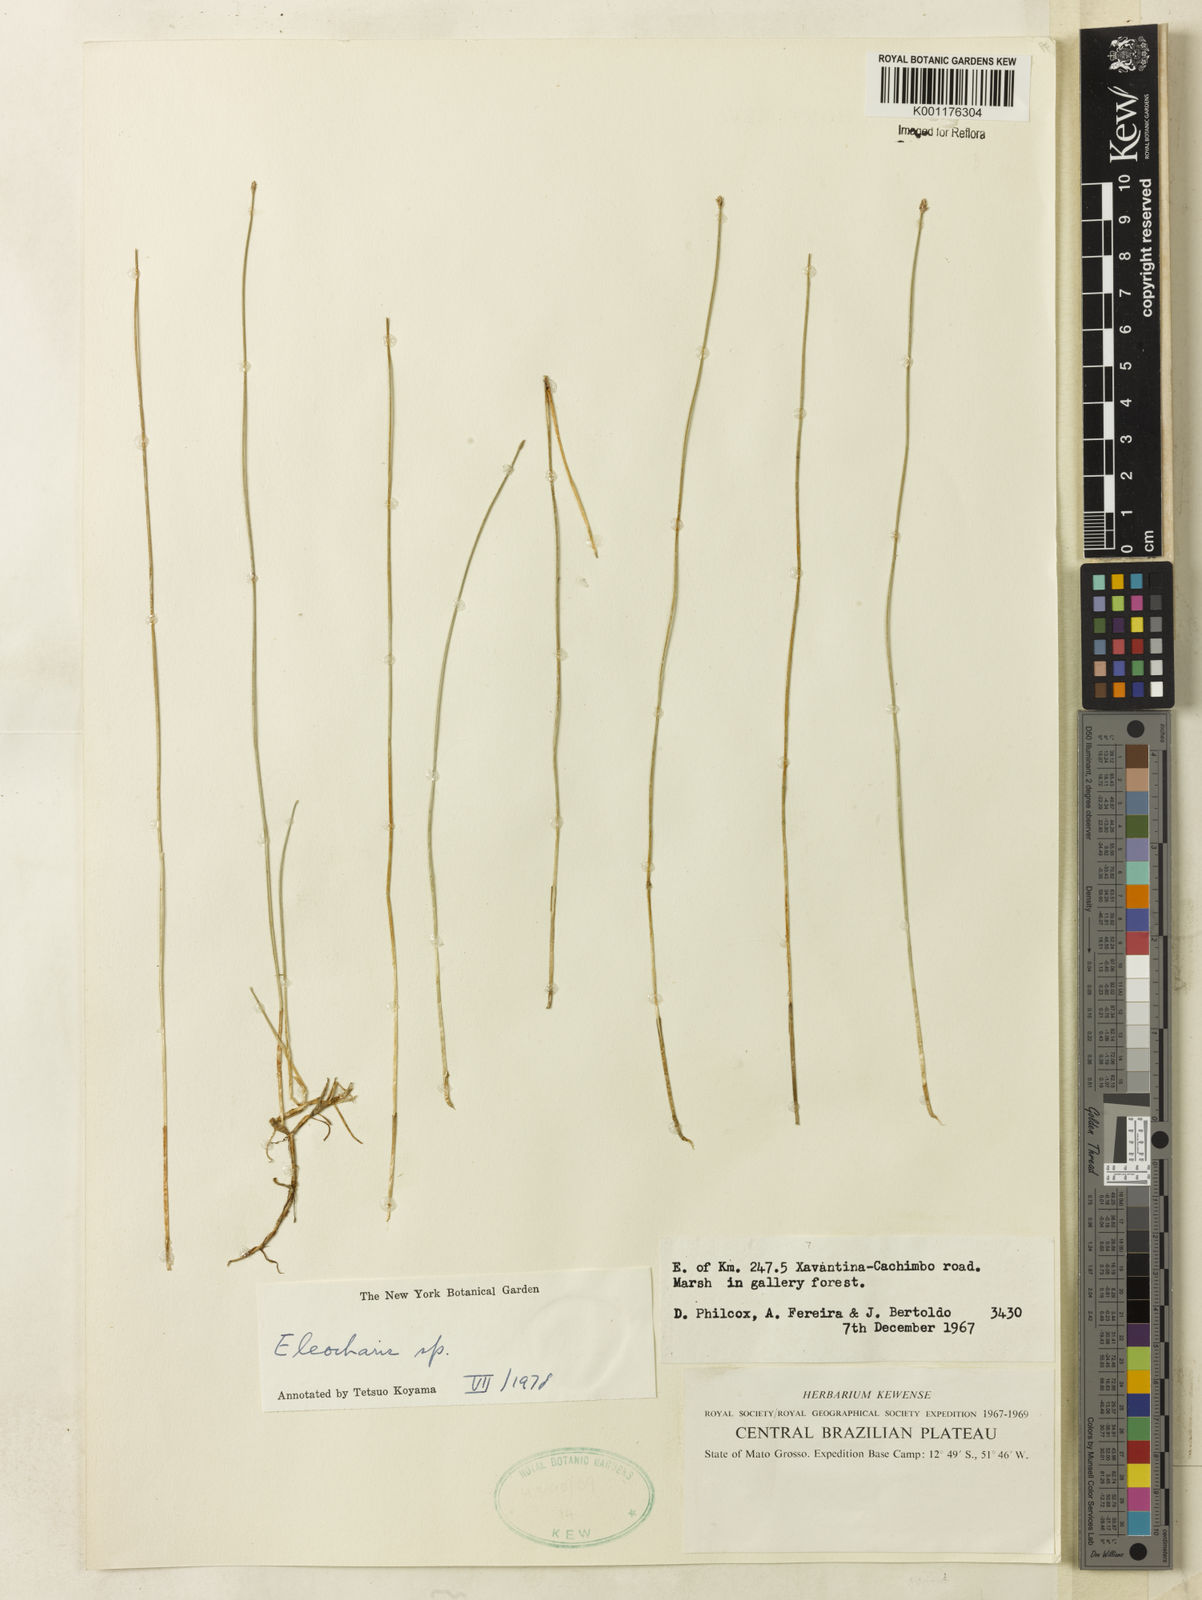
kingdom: Plantae
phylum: Tracheophyta
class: Liliopsida
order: Poales
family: Cyperaceae
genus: Eleocharis
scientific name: Eleocharis
